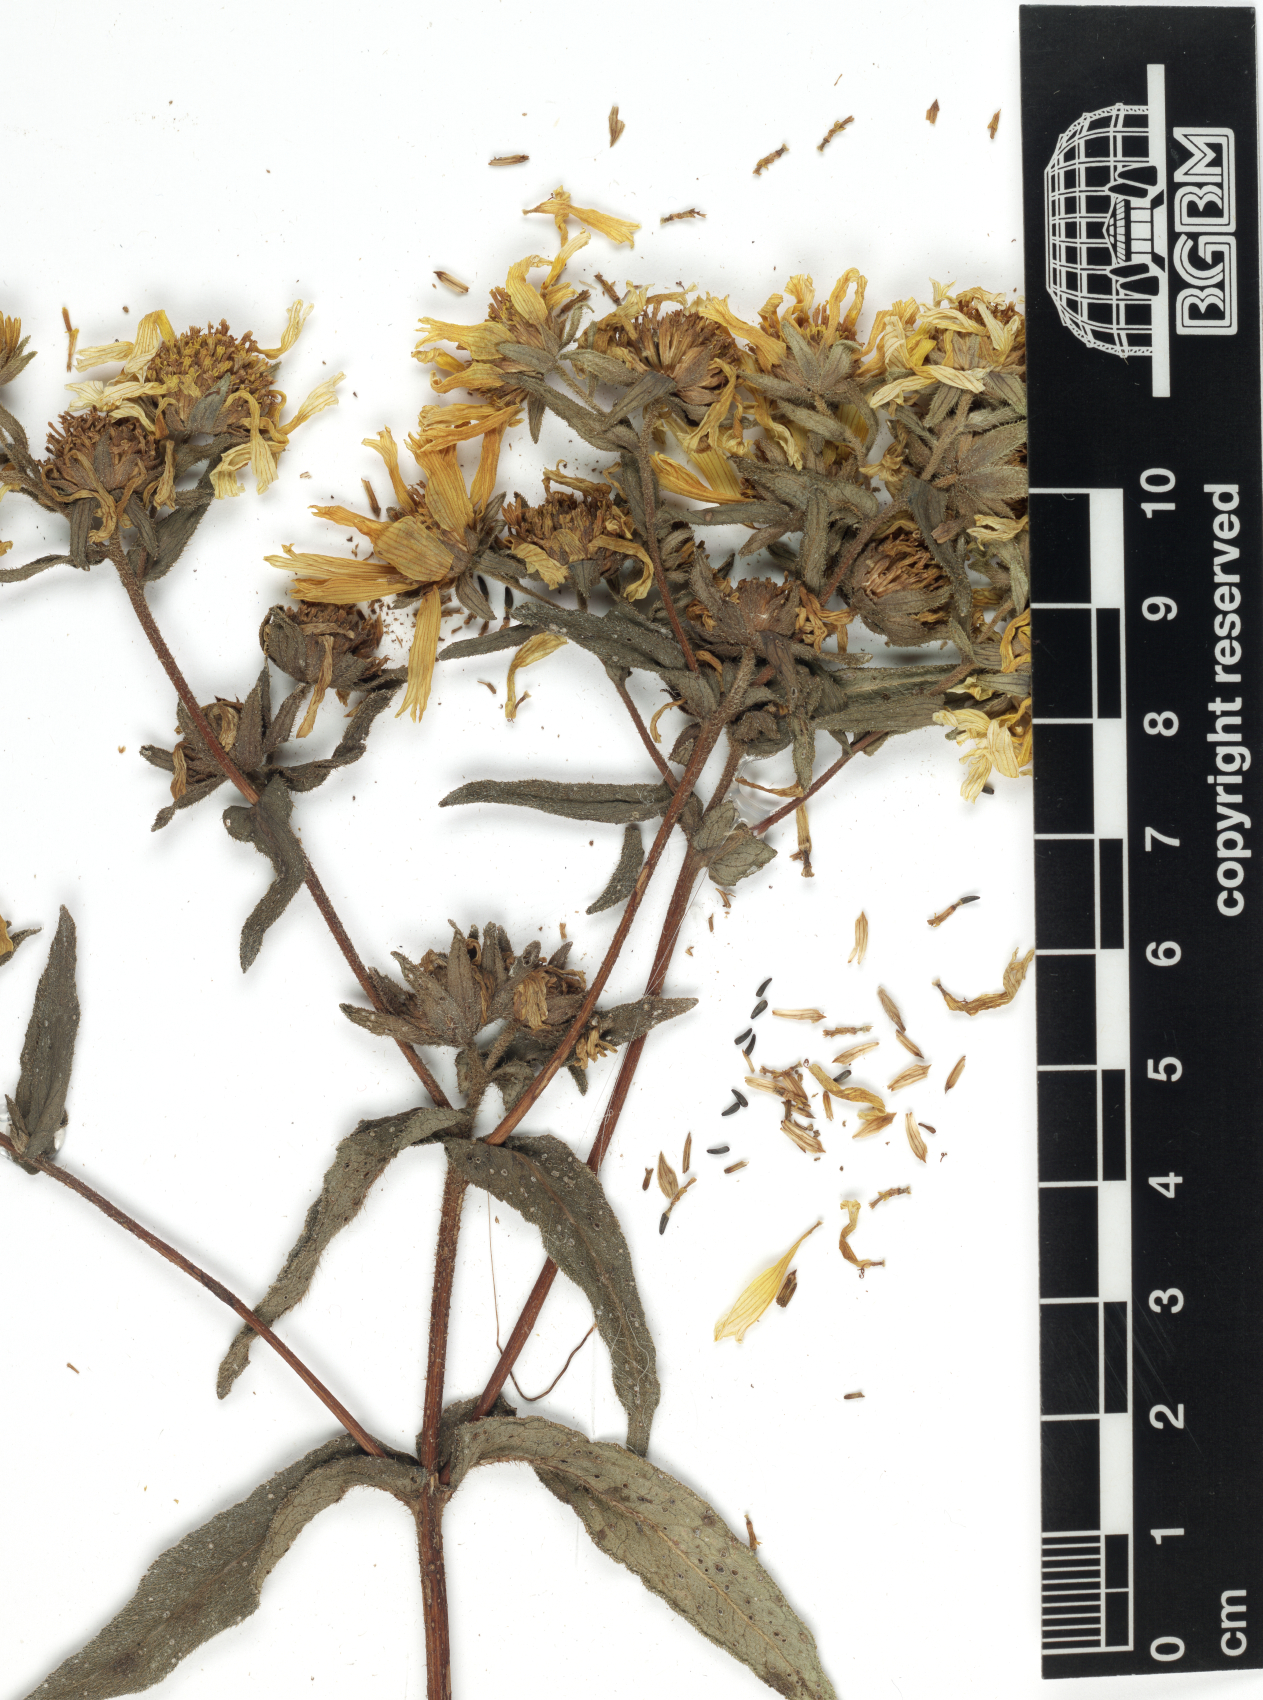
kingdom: Plantae
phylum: Tracheophyta
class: Magnoliopsida
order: Asterales
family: Asteraceae
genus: Guizotia
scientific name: Guizotia scabra
